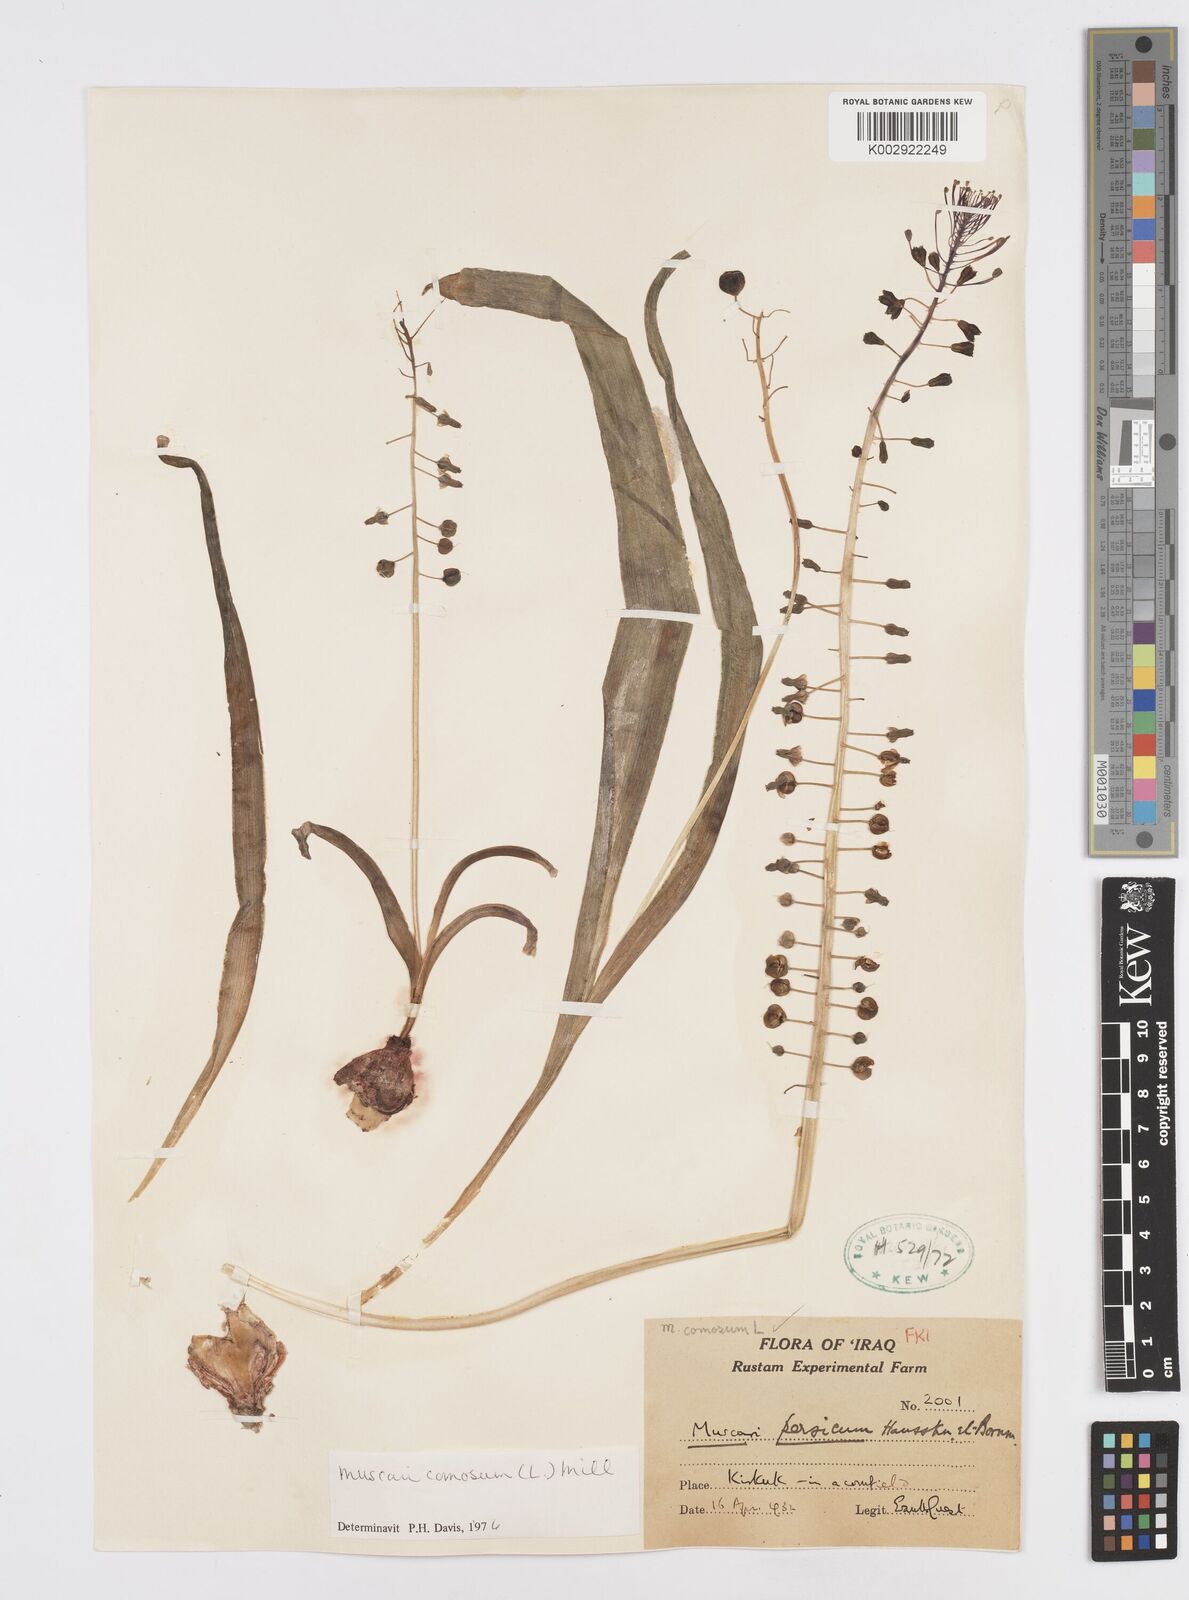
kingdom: Plantae
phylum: Tracheophyta
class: Liliopsida
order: Asparagales
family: Asparagaceae
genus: Muscari
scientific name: Muscari comosum
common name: Tassel hyacinth
